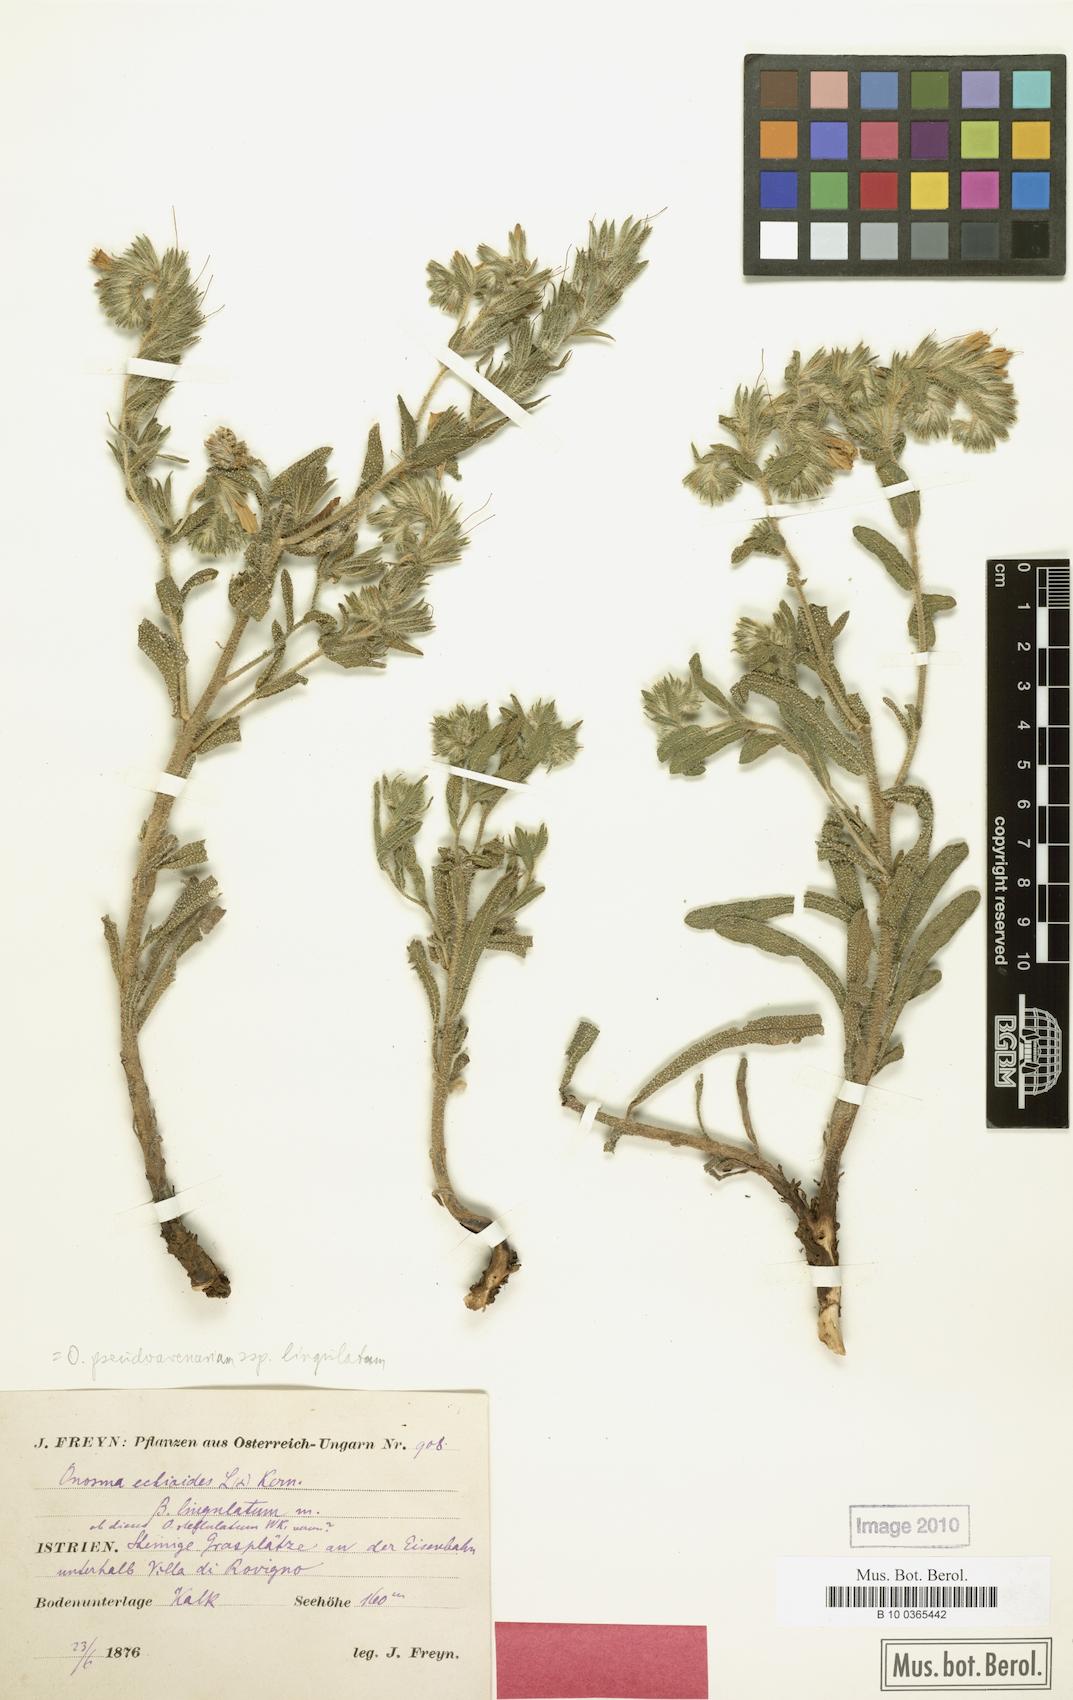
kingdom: Plantae
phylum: Tracheophyta
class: Magnoliopsida
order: Boraginales
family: Boraginaceae
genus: Onosma
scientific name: Onosma pseudoarenaria
